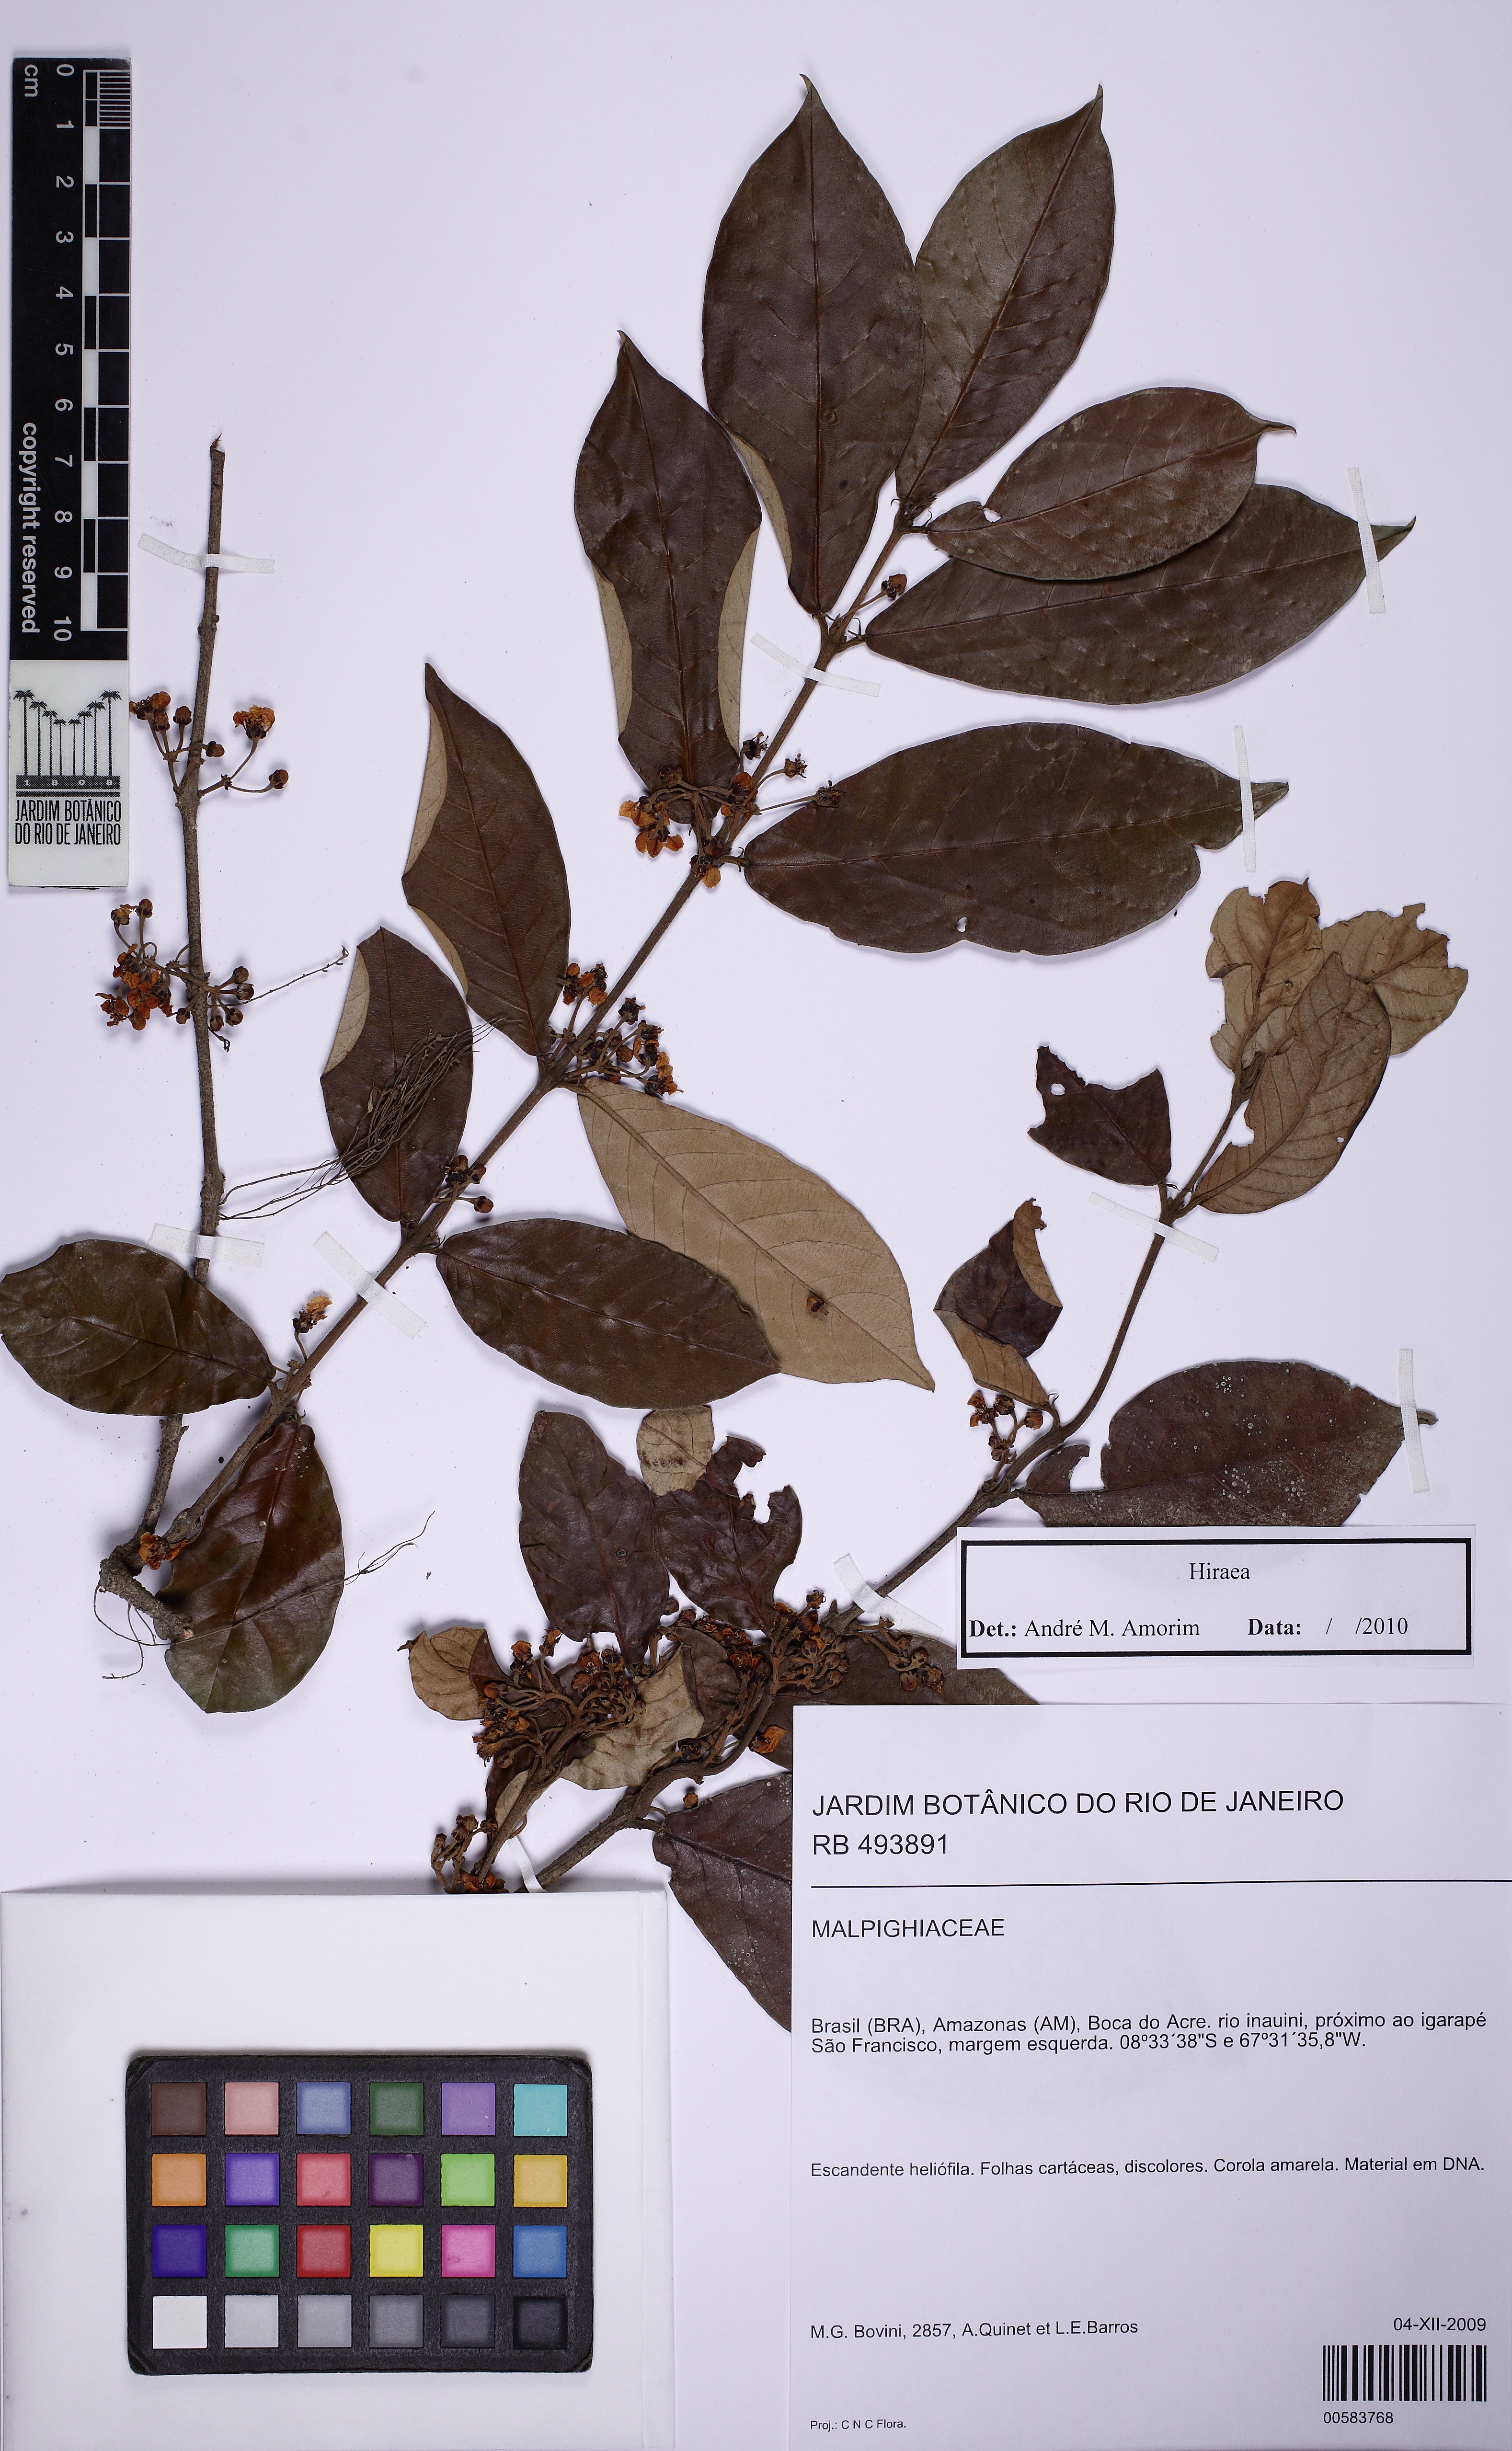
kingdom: Plantae
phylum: Tracheophyta
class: Magnoliopsida
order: Malpighiales
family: Malpighiaceae
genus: Hiraea
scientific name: Hiraea
